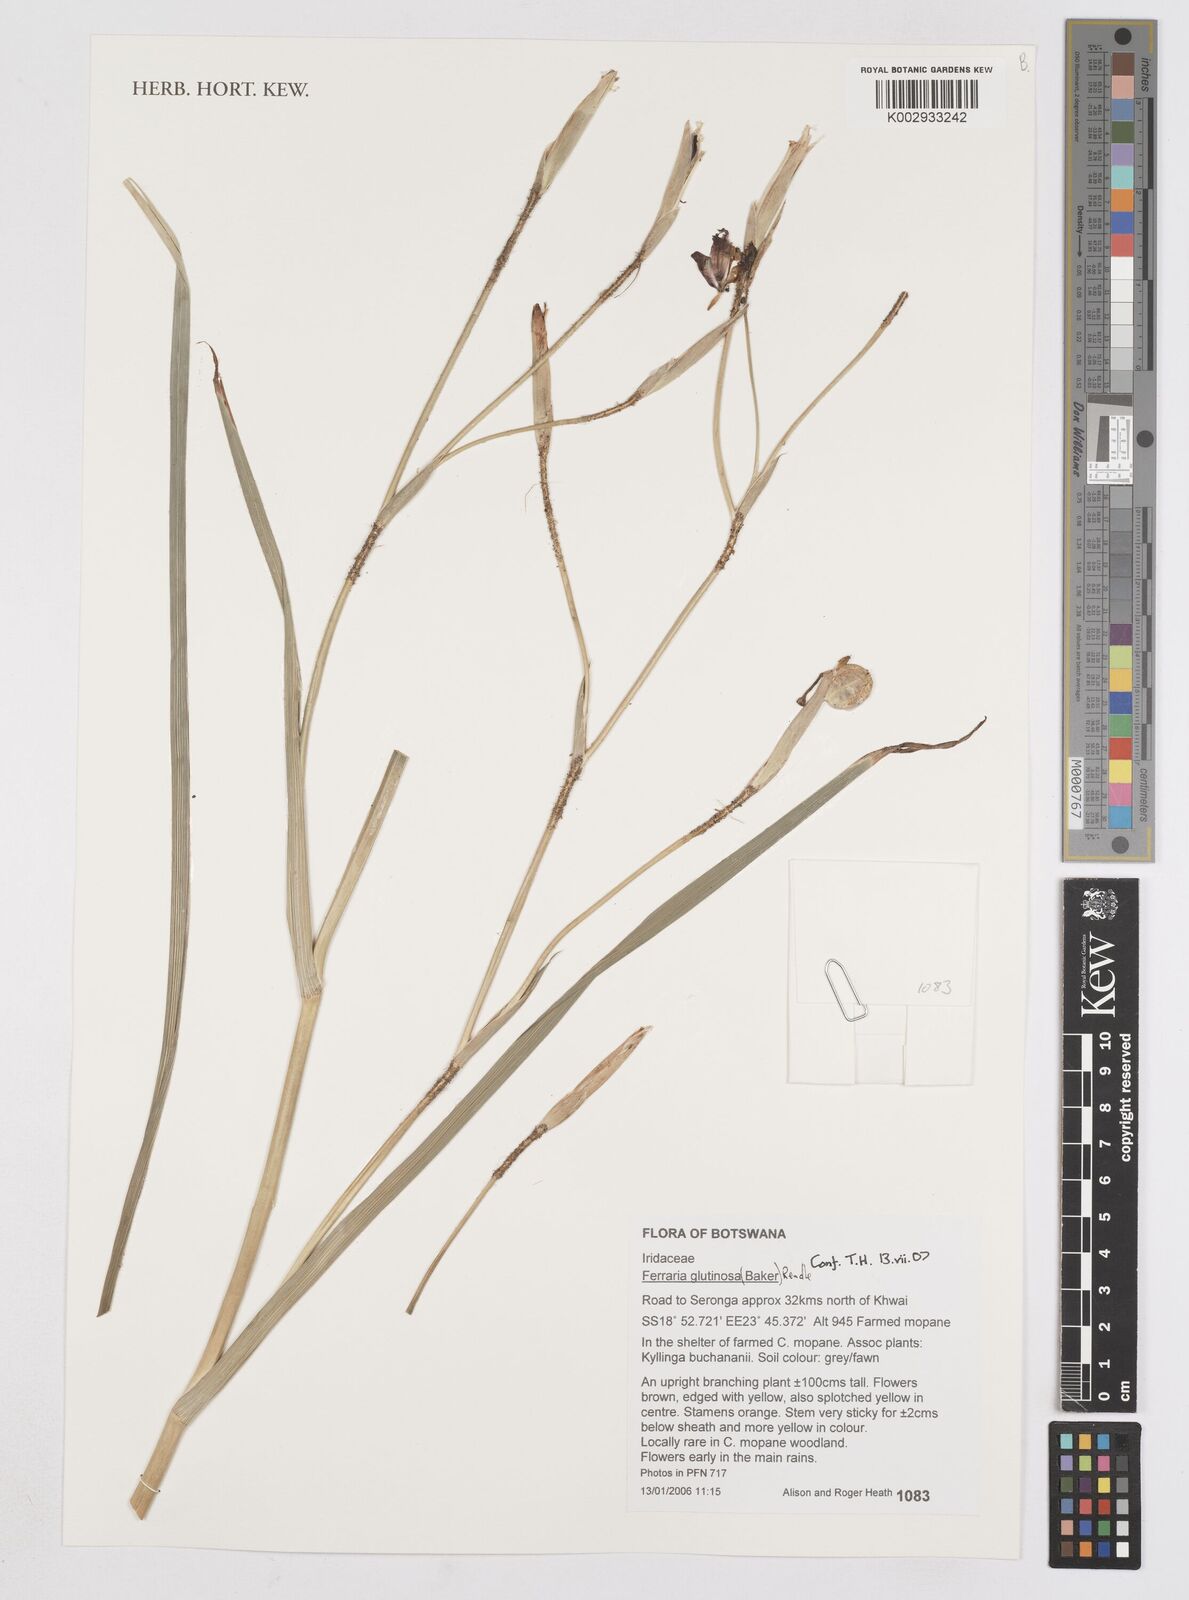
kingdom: Plantae
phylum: Tracheophyta
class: Liliopsida
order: Asparagales
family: Iridaceae
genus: Ferraria
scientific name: Ferraria glutinosa
